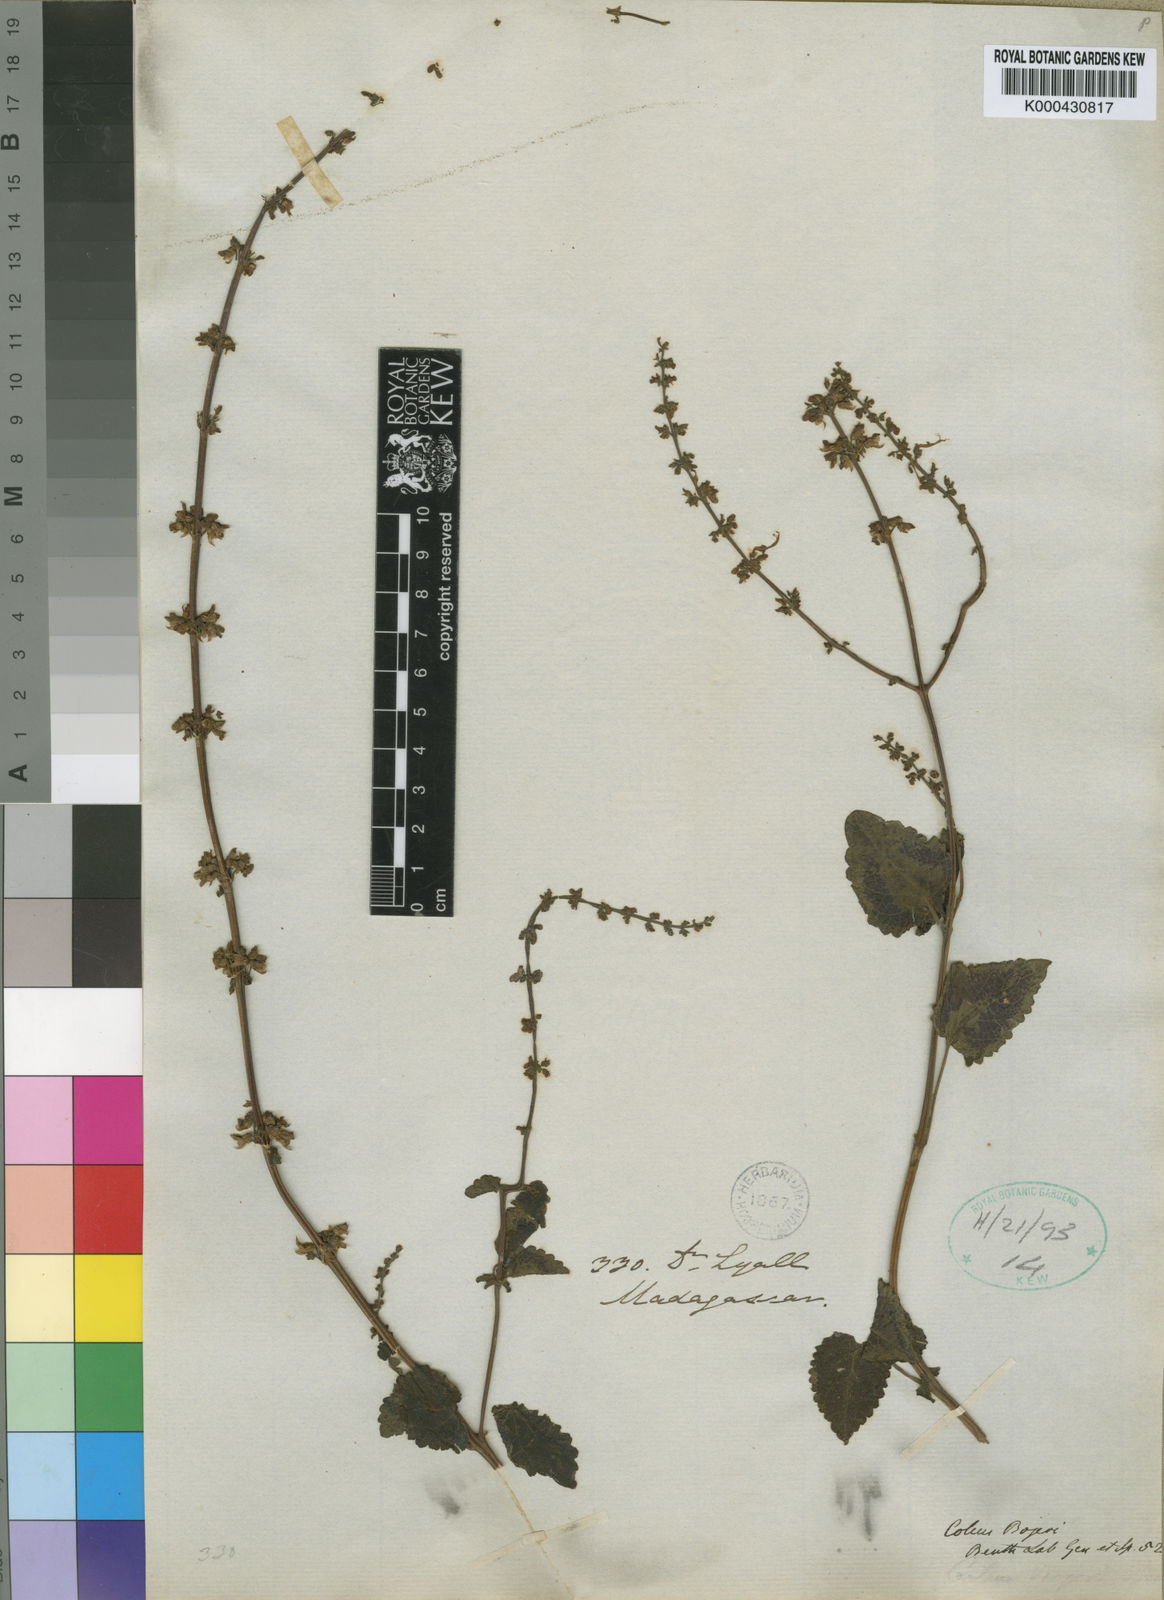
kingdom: Plantae
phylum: Tracheophyta
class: Magnoliopsida
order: Lamiales
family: Lamiaceae
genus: Coleus
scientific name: Coleus bojeri
